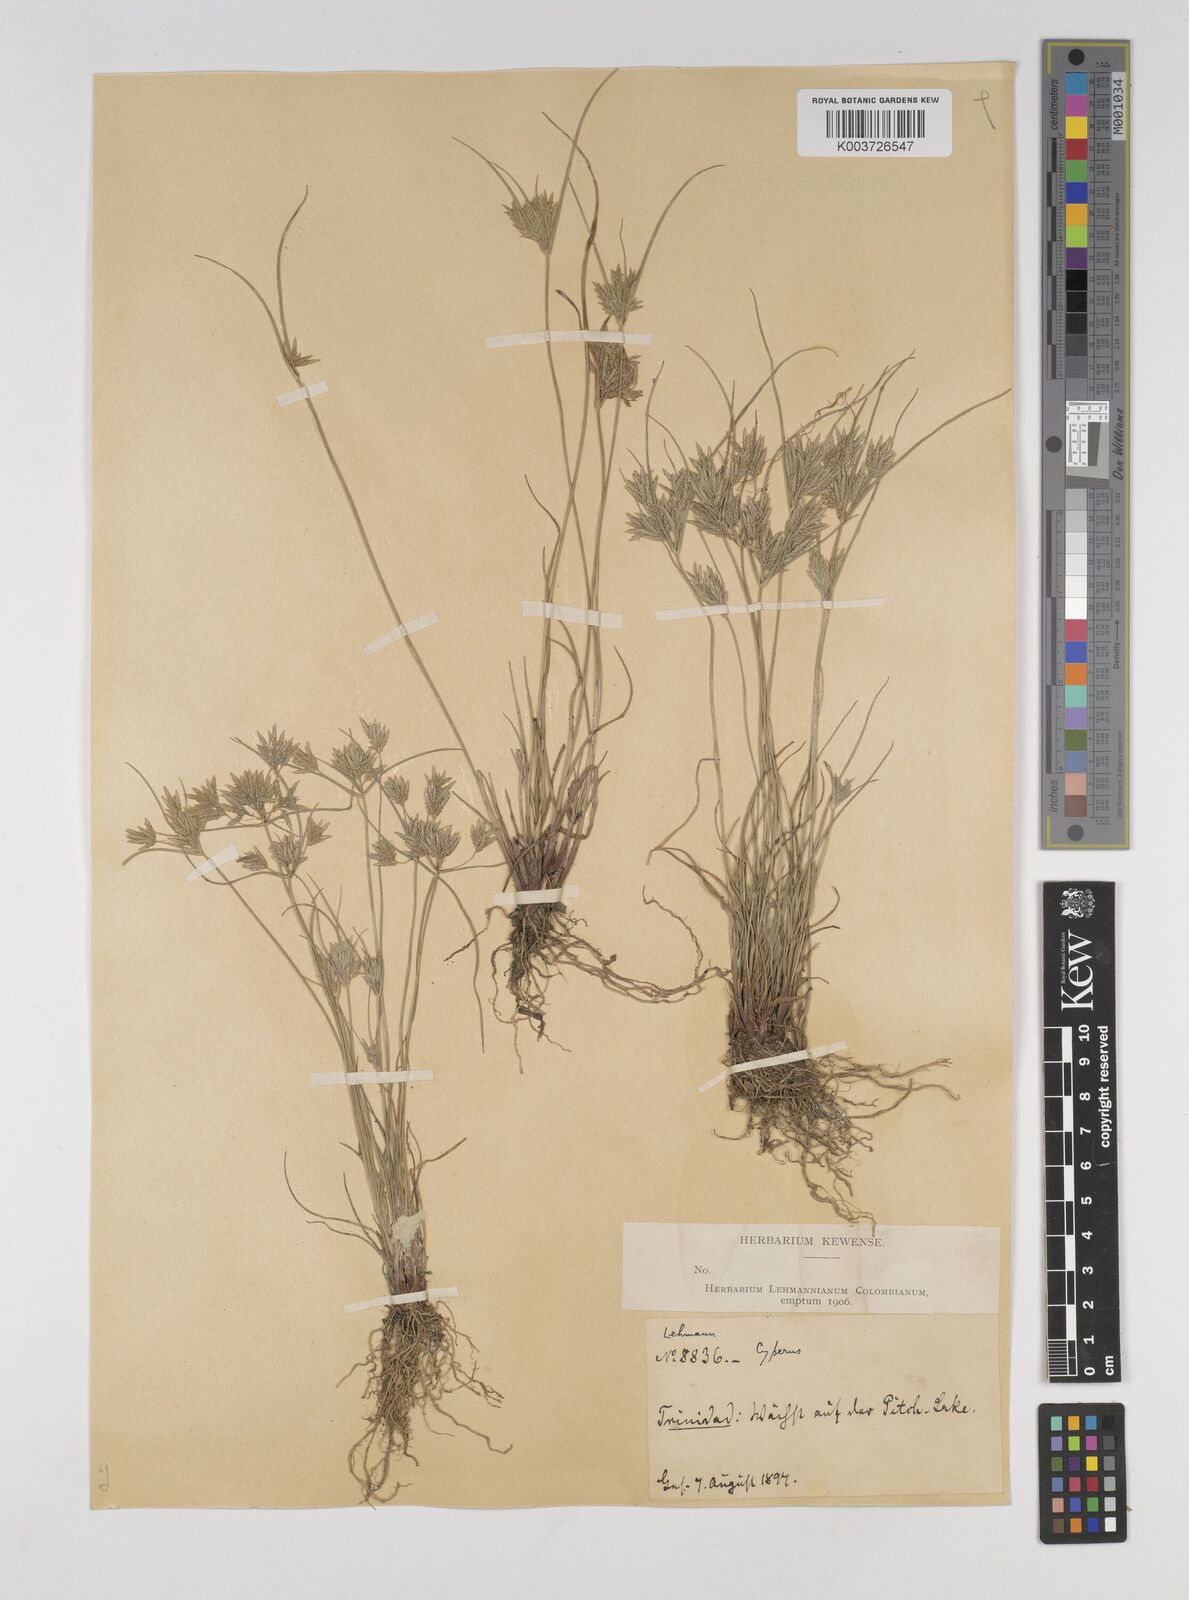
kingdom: Plantae
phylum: Tracheophyta
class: Liliopsida
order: Poales
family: Cyperaceae
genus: Cyperus
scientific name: Cyperus sphacelatus
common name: Roadside flatsedge
